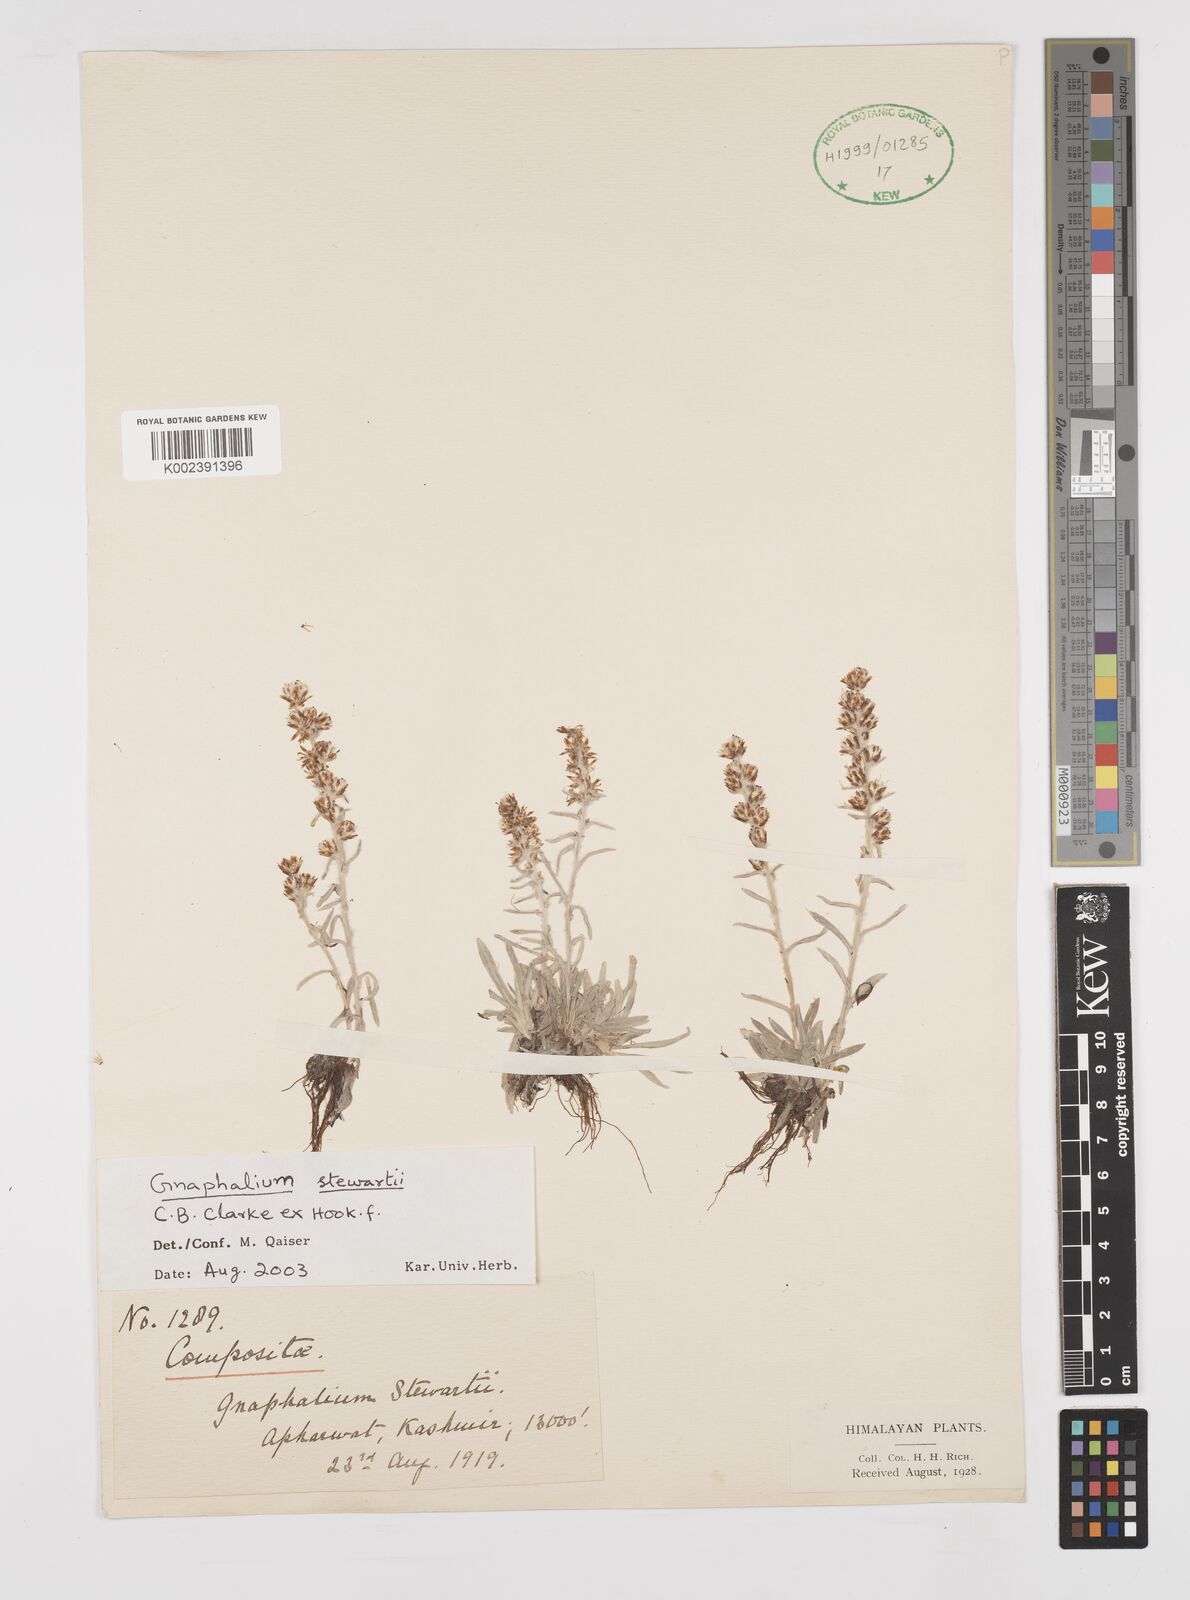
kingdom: Plantae
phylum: Tracheophyta
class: Magnoliopsida
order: Asterales
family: Asteraceae
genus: Gnaphalium
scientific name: Gnaphalium stewartii
